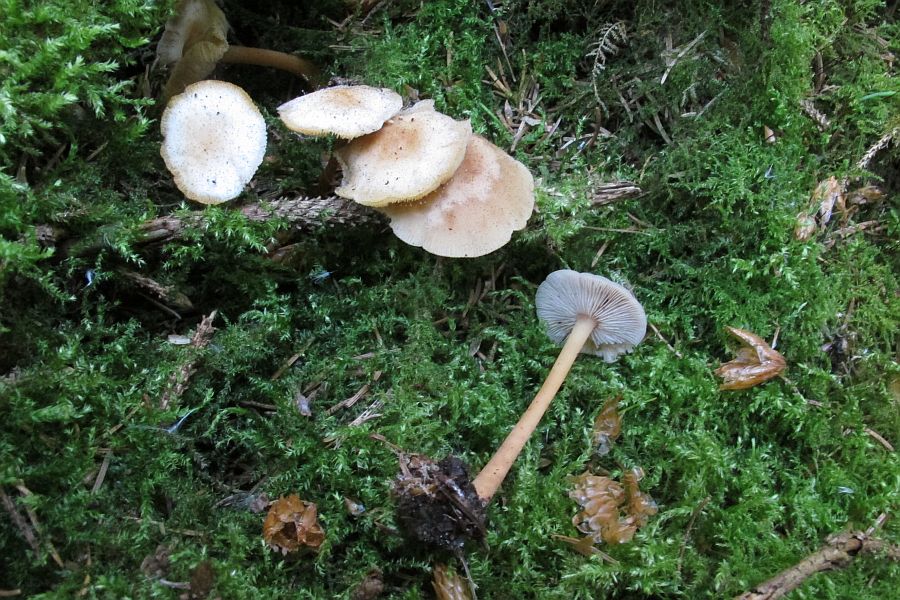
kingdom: Fungi
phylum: Basidiomycota
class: Agaricomycetes
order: Agaricales
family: Omphalotaceae
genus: Gymnopus
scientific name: Gymnopus aquosus
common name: bleg fladhat
